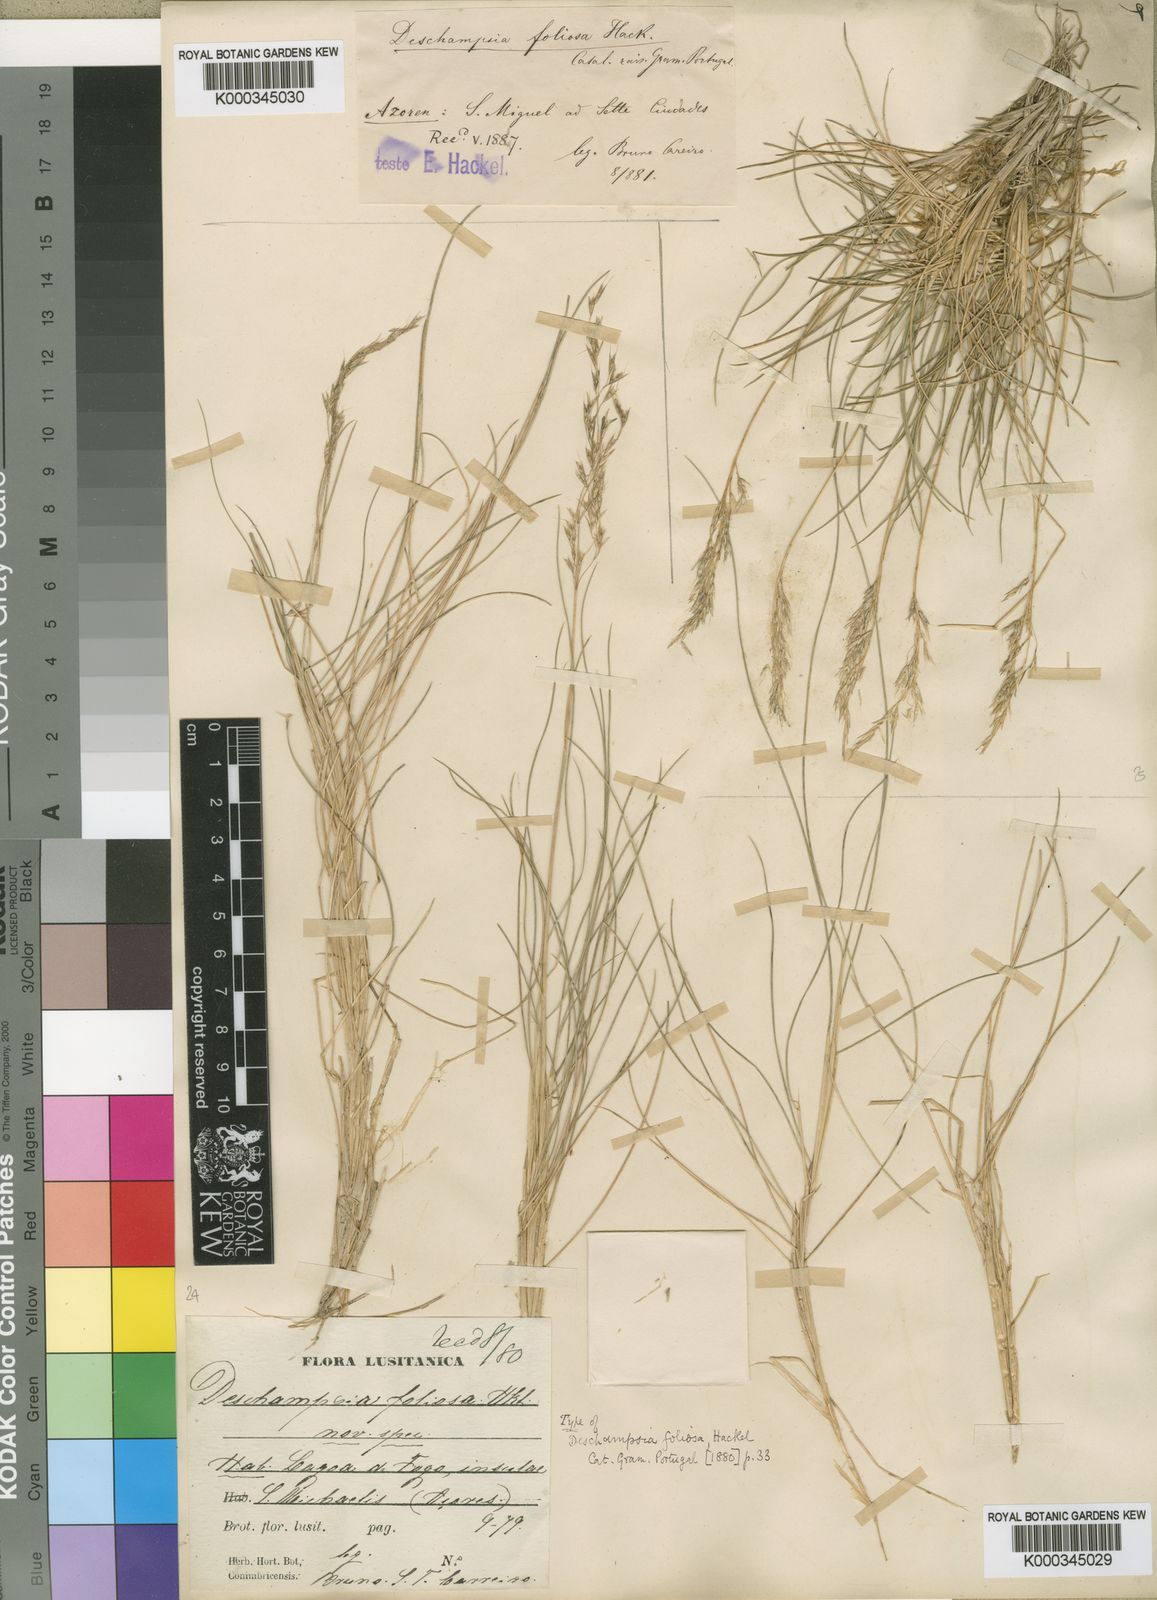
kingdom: Plantae
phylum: Tracheophyta
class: Liliopsida
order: Poales
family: Poaceae
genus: Avenella
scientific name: Avenella foliosa
